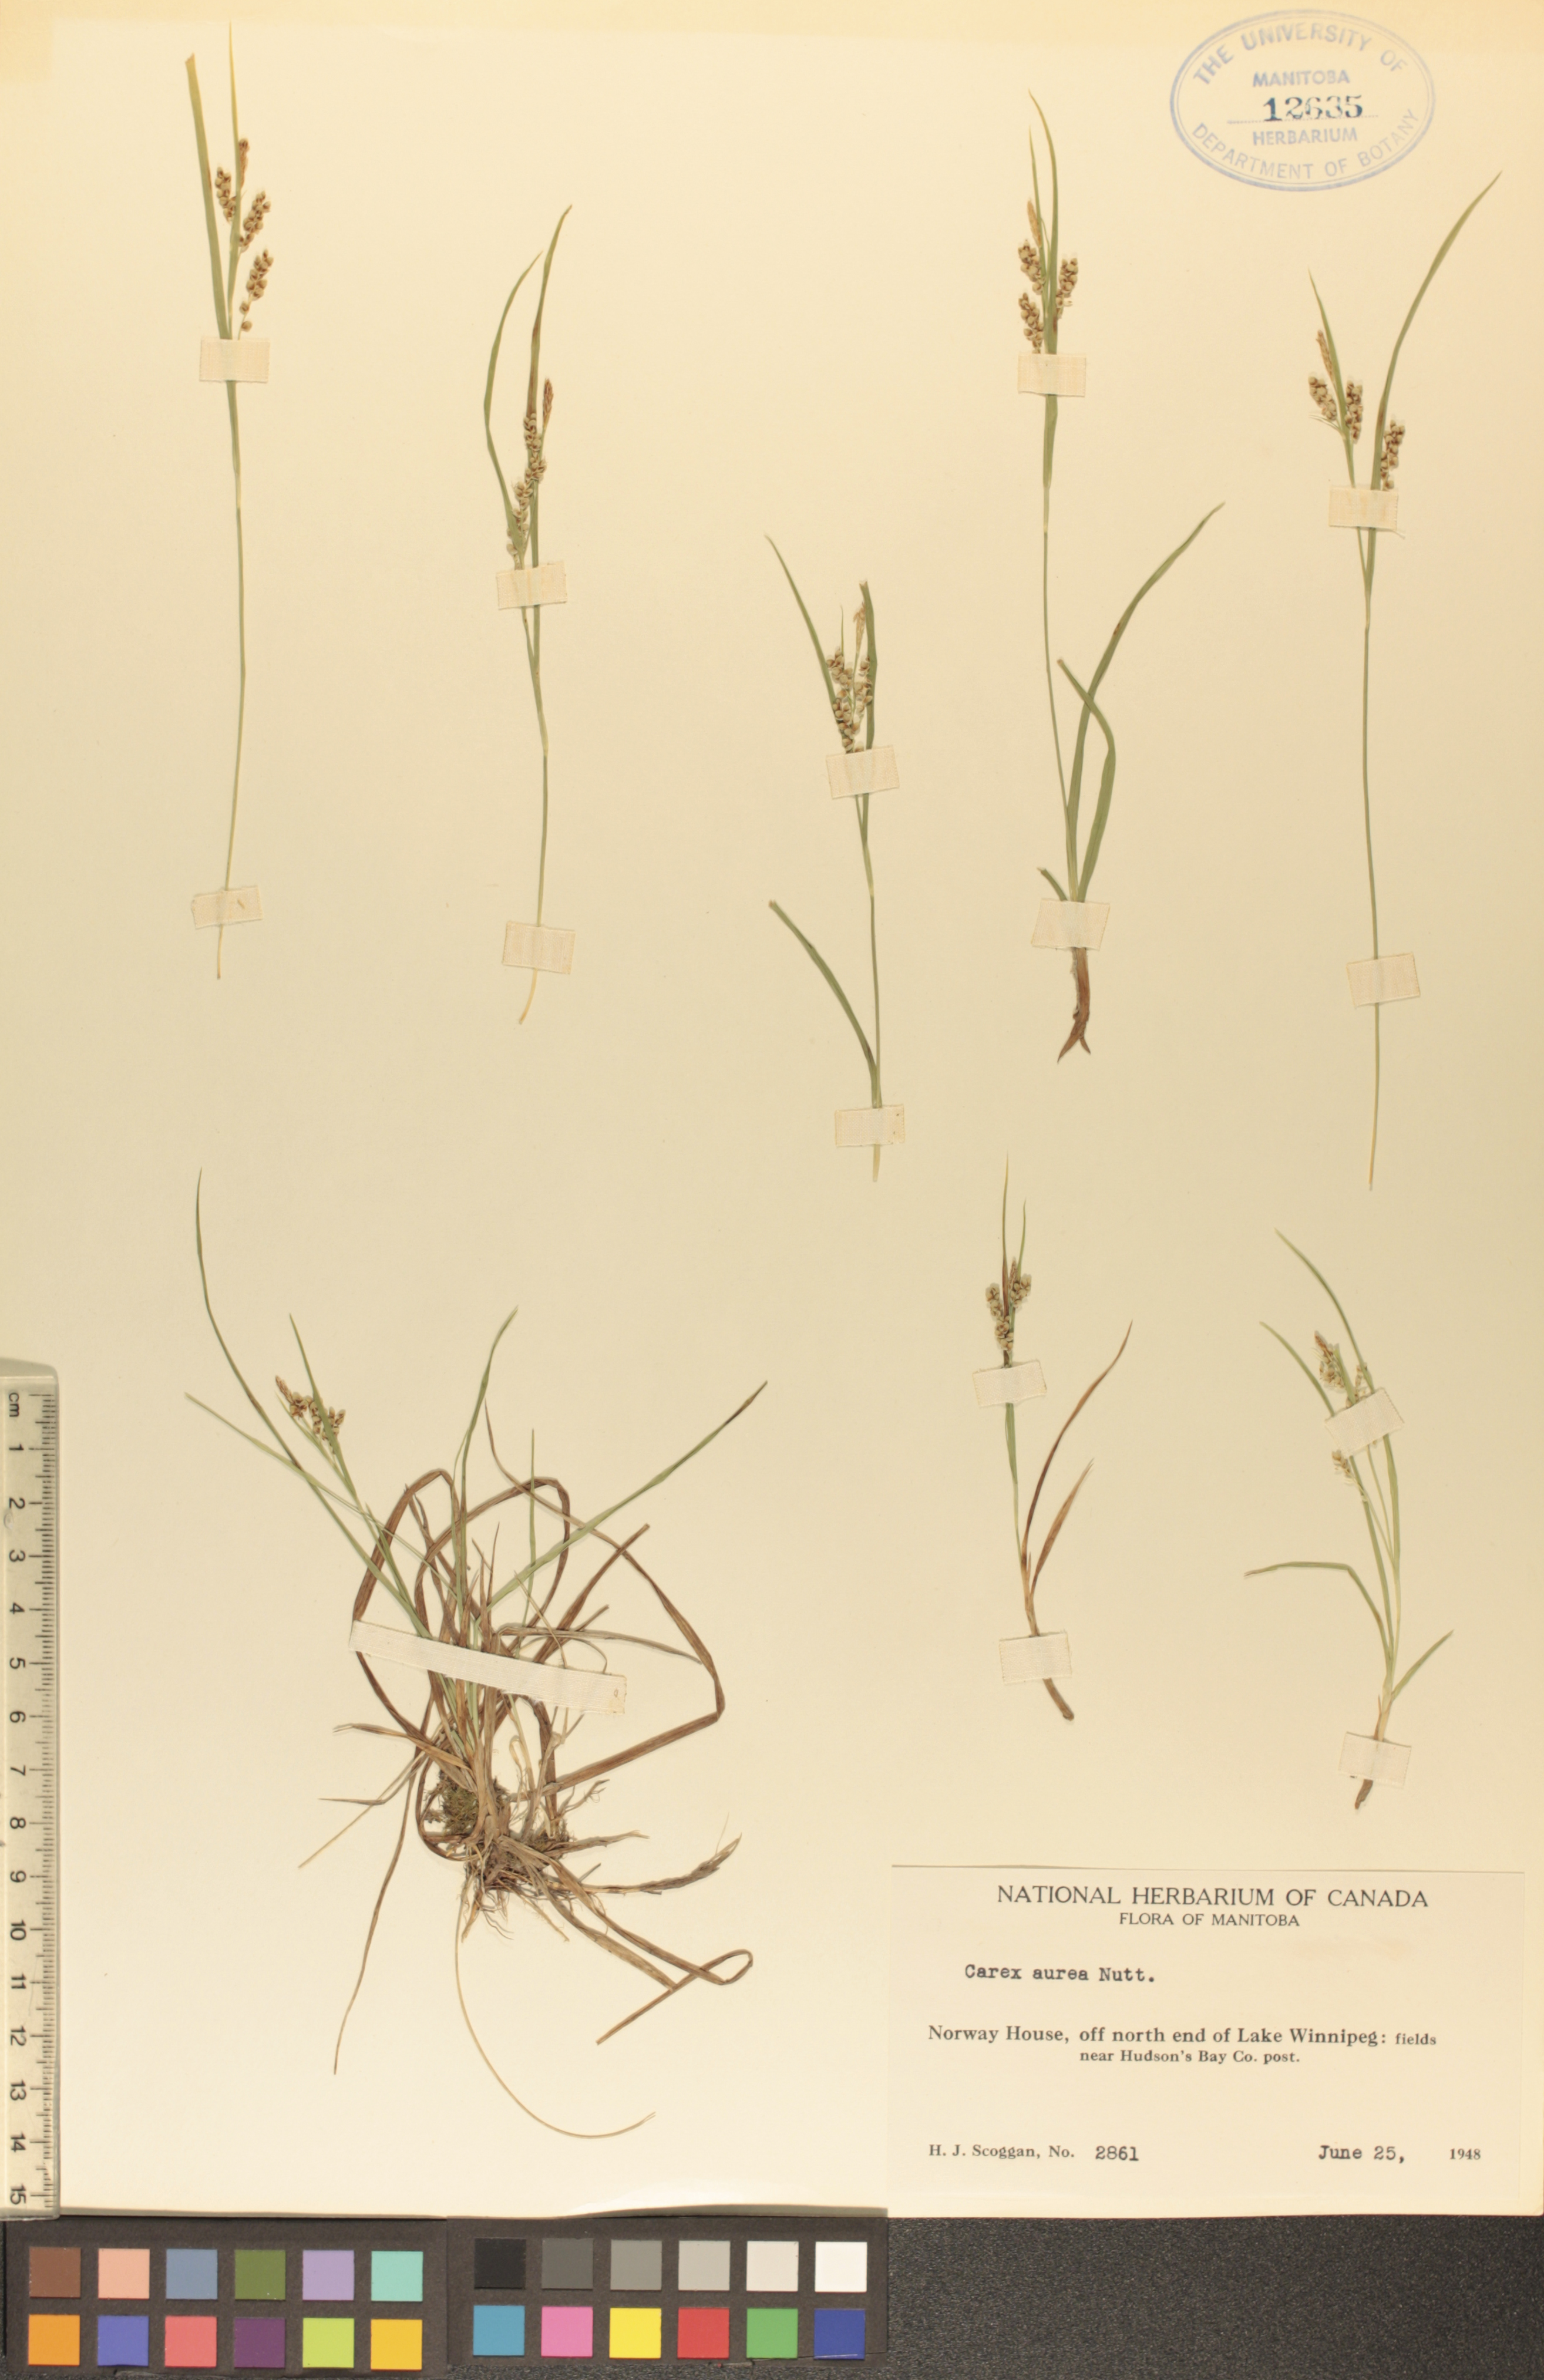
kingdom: Plantae
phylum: Tracheophyta
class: Liliopsida
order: Poales
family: Cyperaceae
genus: Carex
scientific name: Carex aurea
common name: Golden sedge
